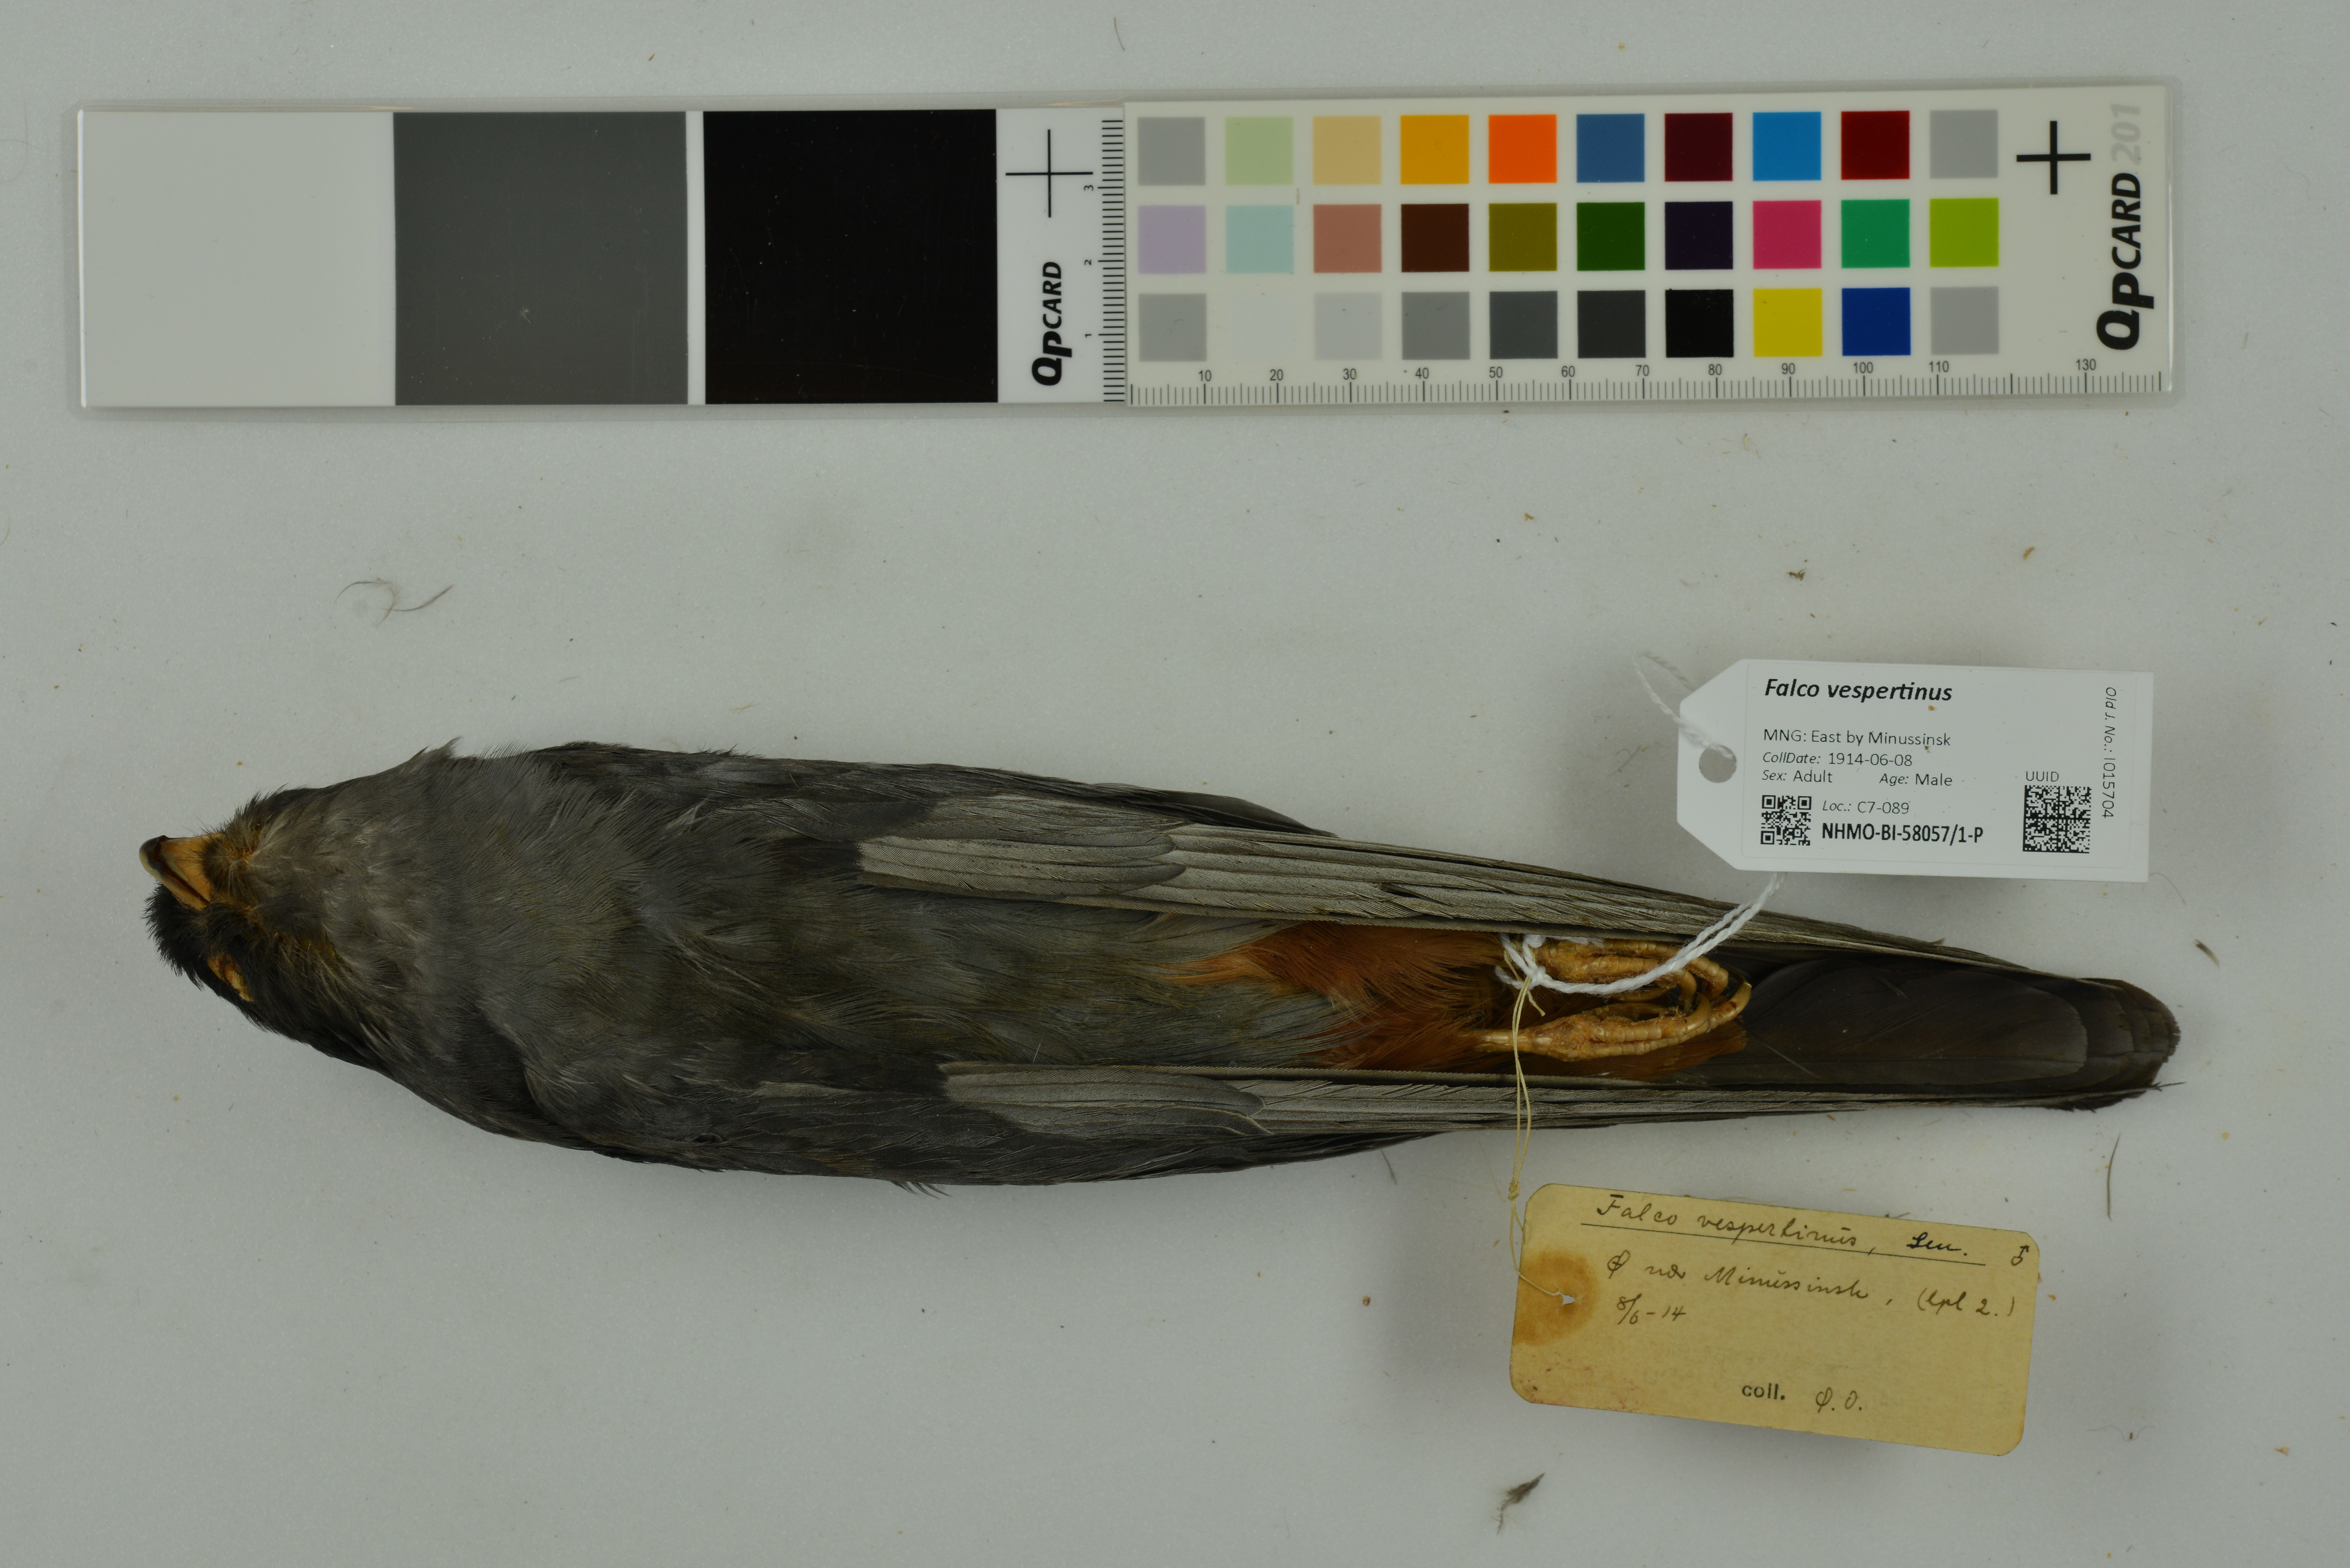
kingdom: Animalia
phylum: Chordata
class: Aves
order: Falconiformes
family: Falconidae
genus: Falco
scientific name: Falco vespertinus
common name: Red-footed falcon
